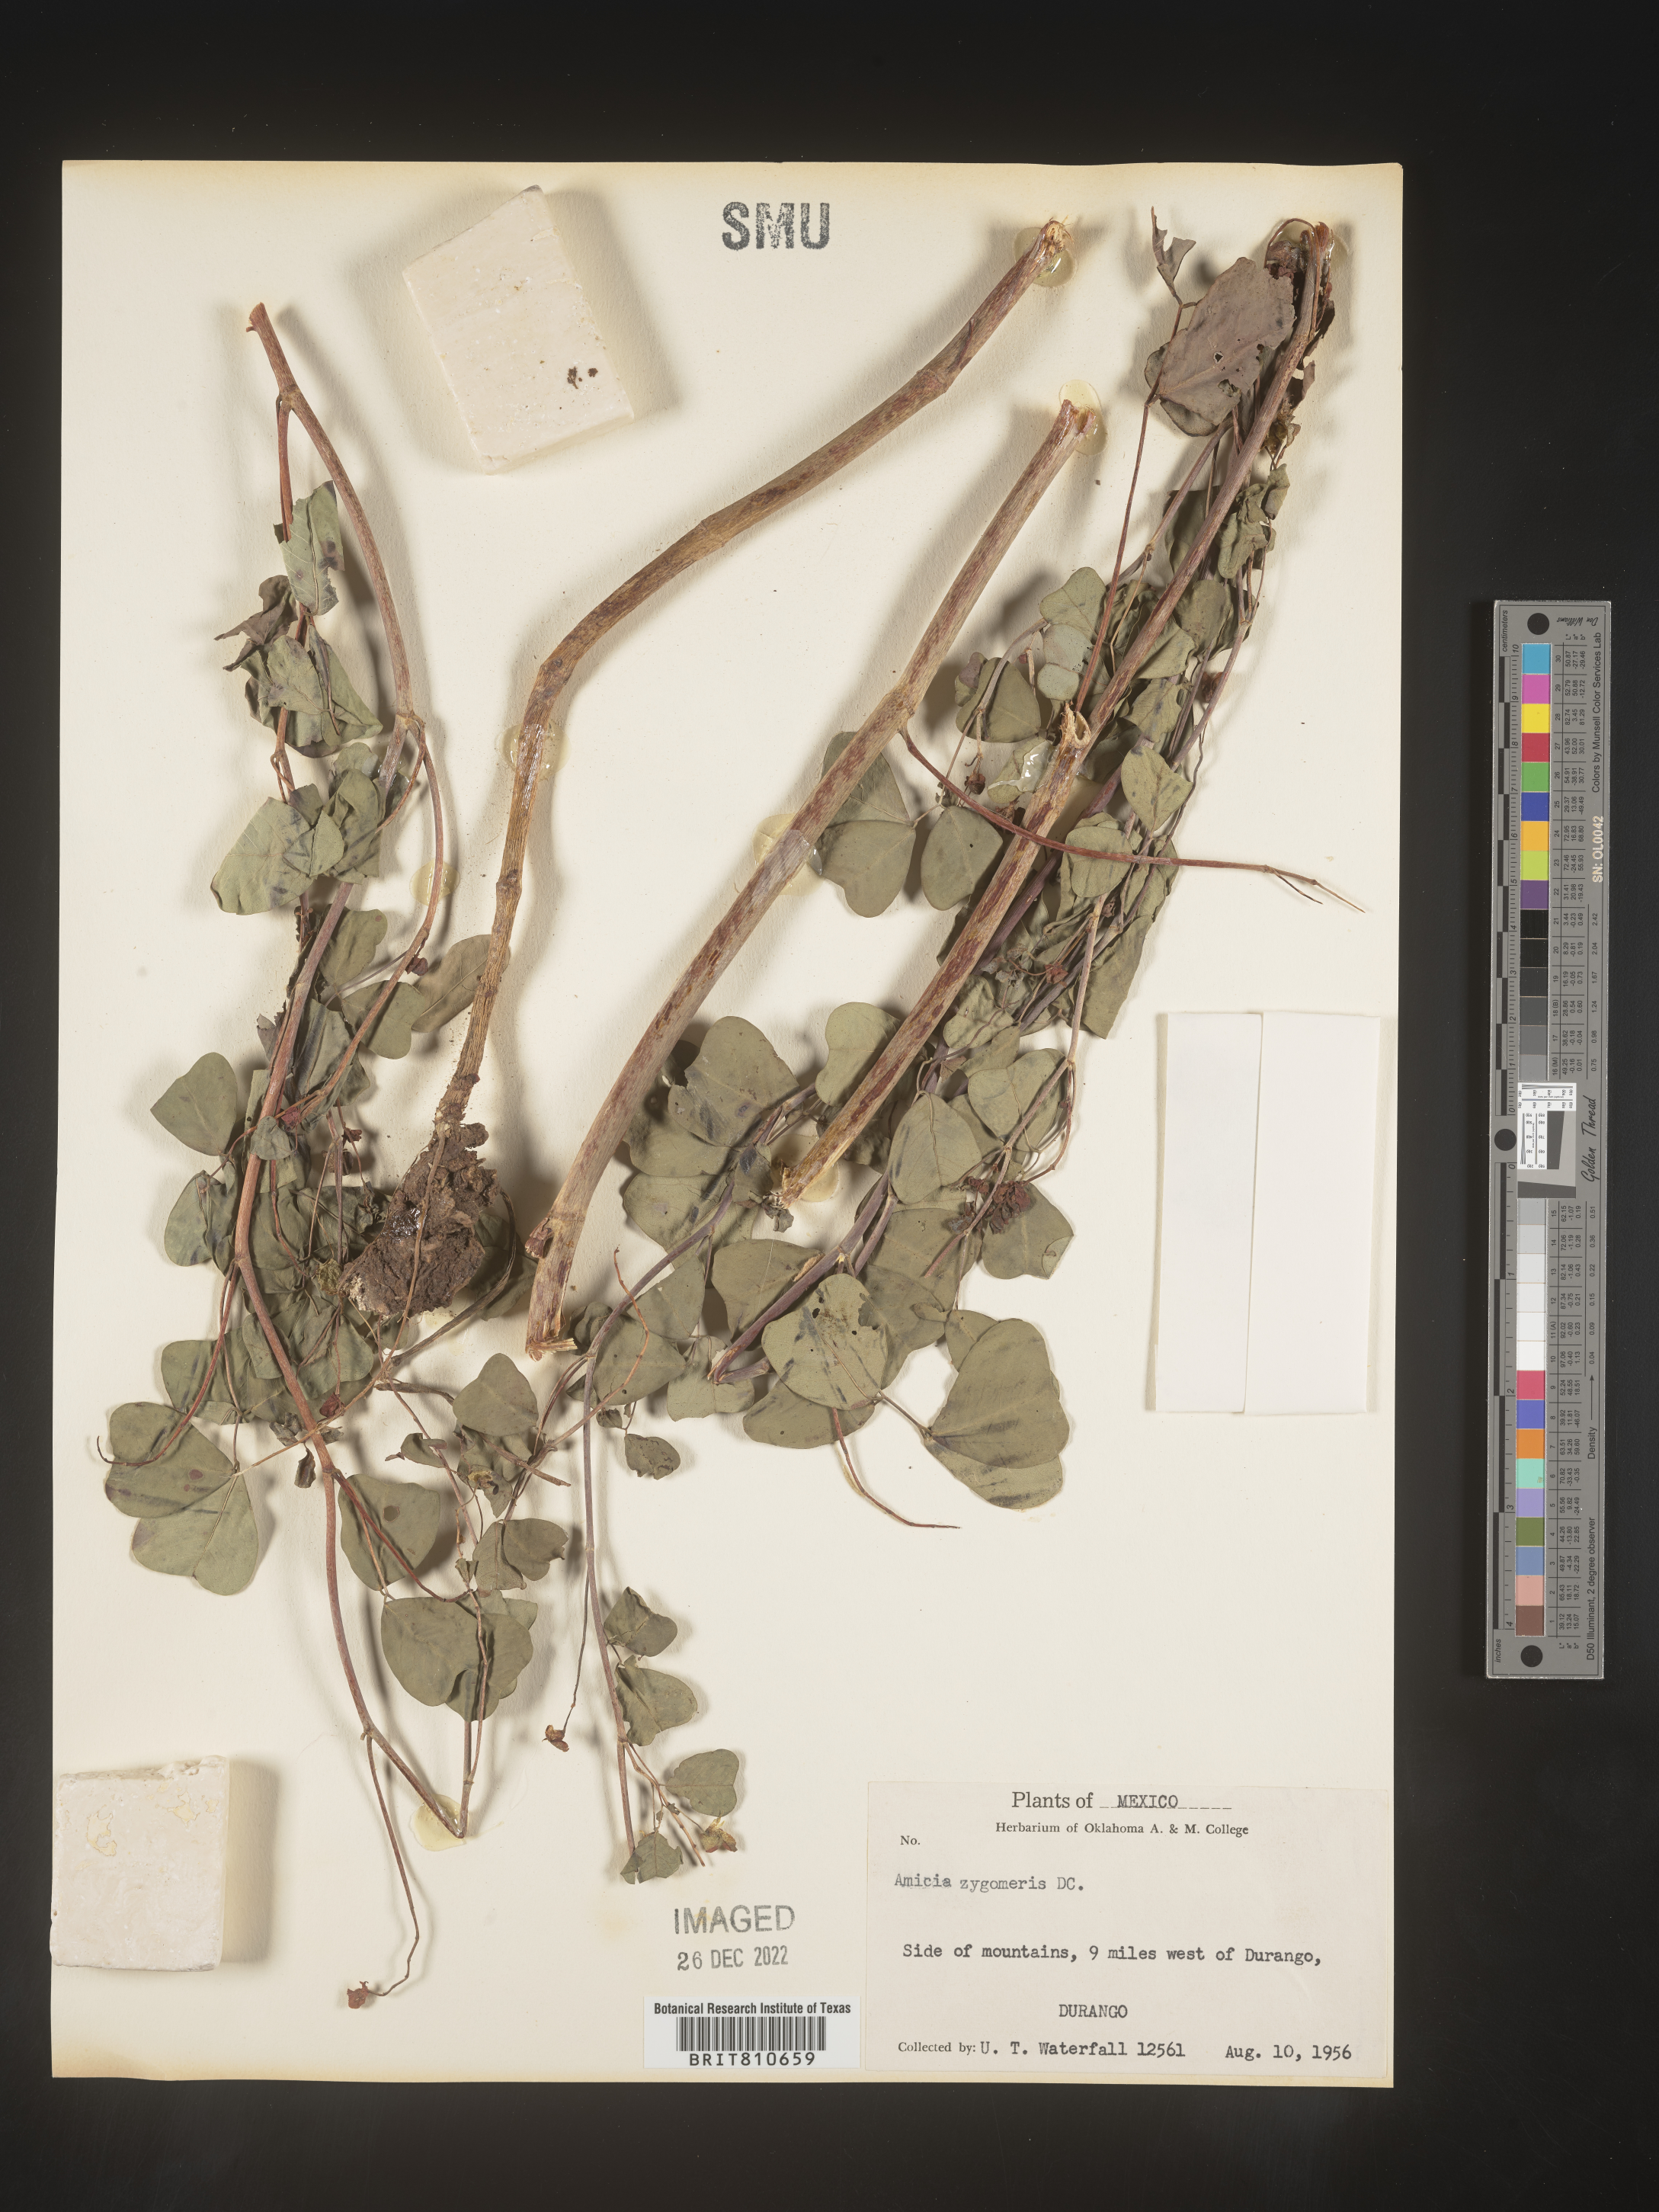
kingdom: Plantae
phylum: Tracheophyta
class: Magnoliopsida
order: Fabales
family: Fabaceae
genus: Amicia
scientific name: Amicia
